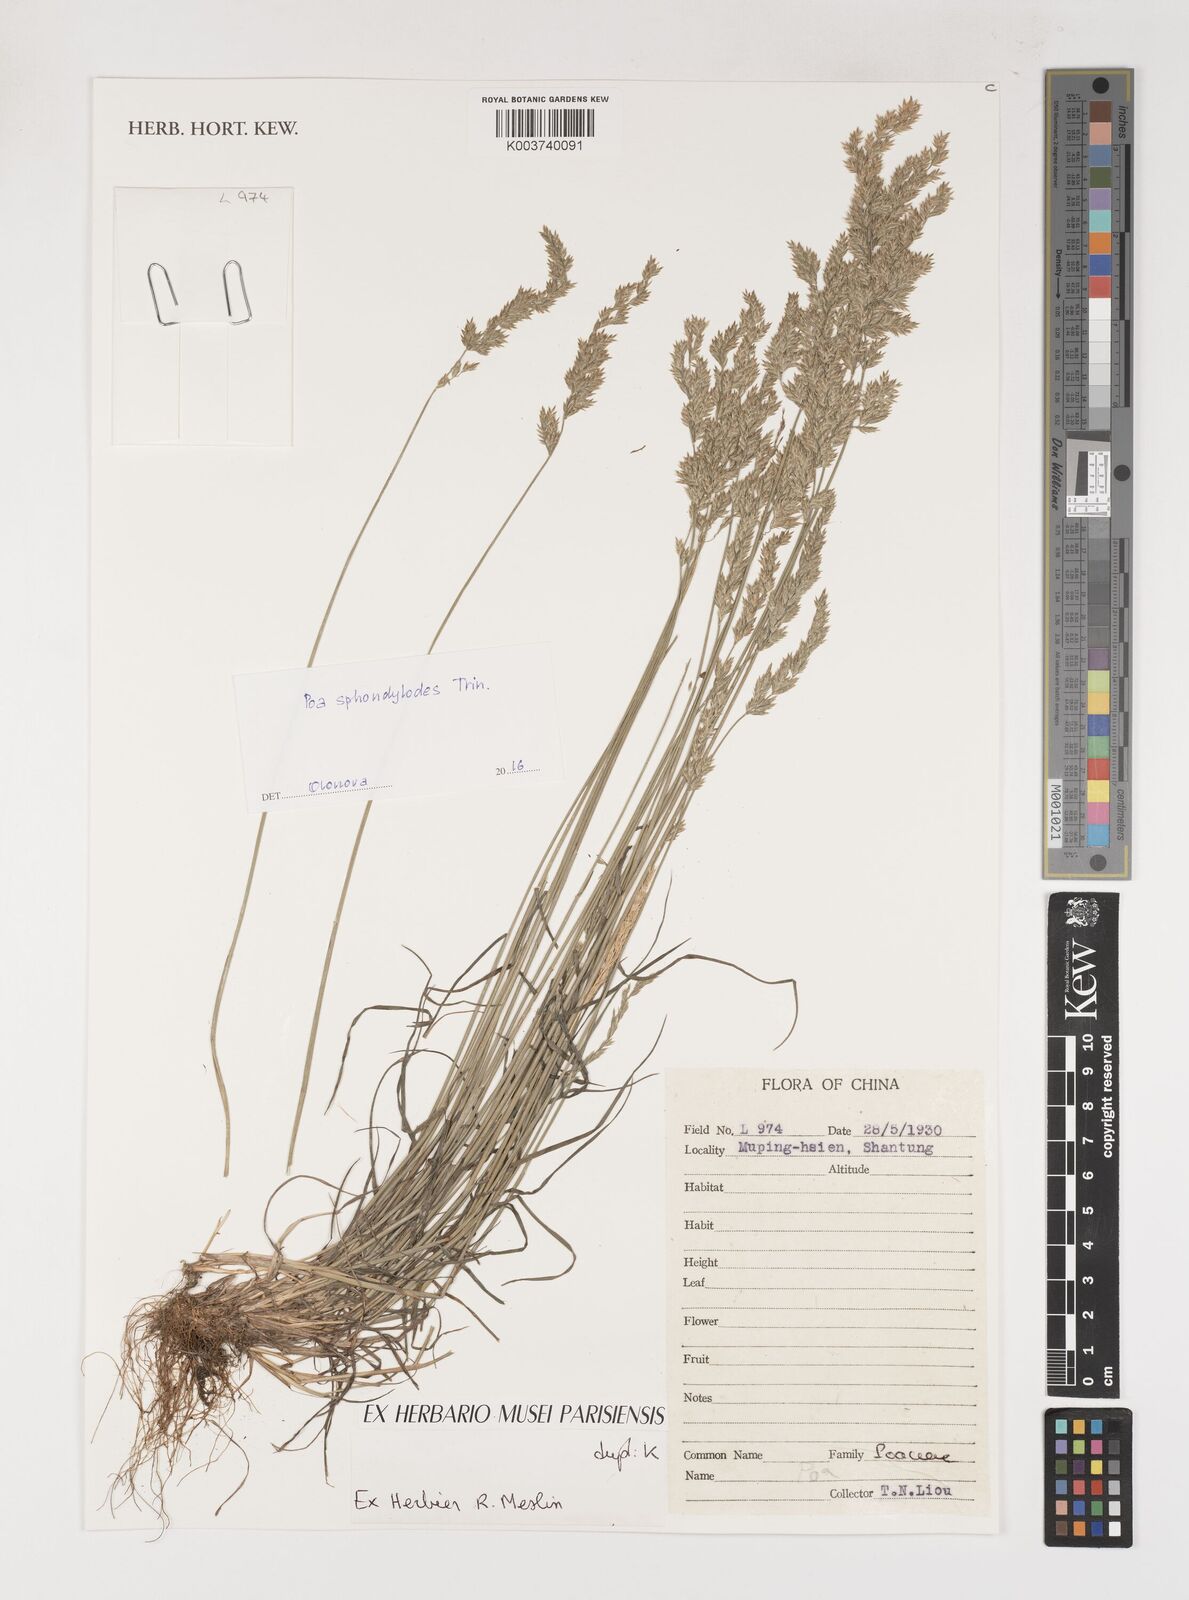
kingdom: Plantae
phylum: Tracheophyta
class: Liliopsida
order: Poales
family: Poaceae
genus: Poa
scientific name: Poa
